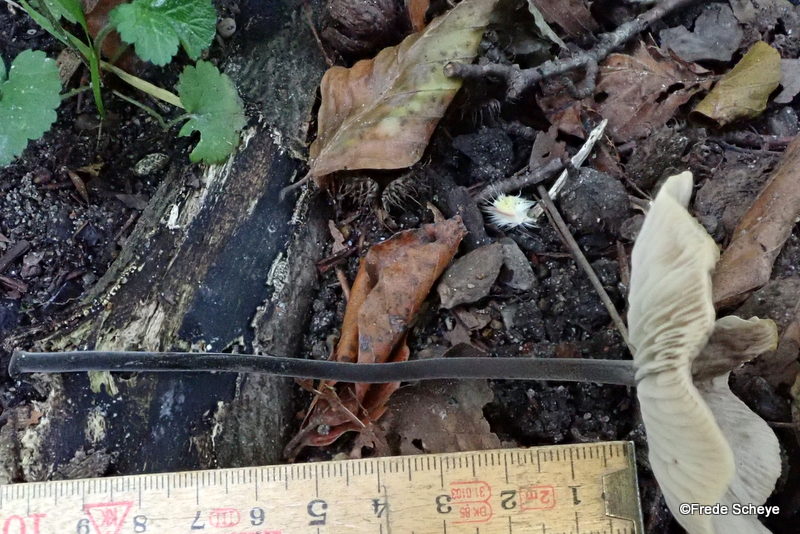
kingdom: Fungi
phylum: Basidiomycota
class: Agaricomycetes
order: Agaricales
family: Omphalotaceae
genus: Mycetinis
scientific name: Mycetinis alliaceus
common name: stor løghat
